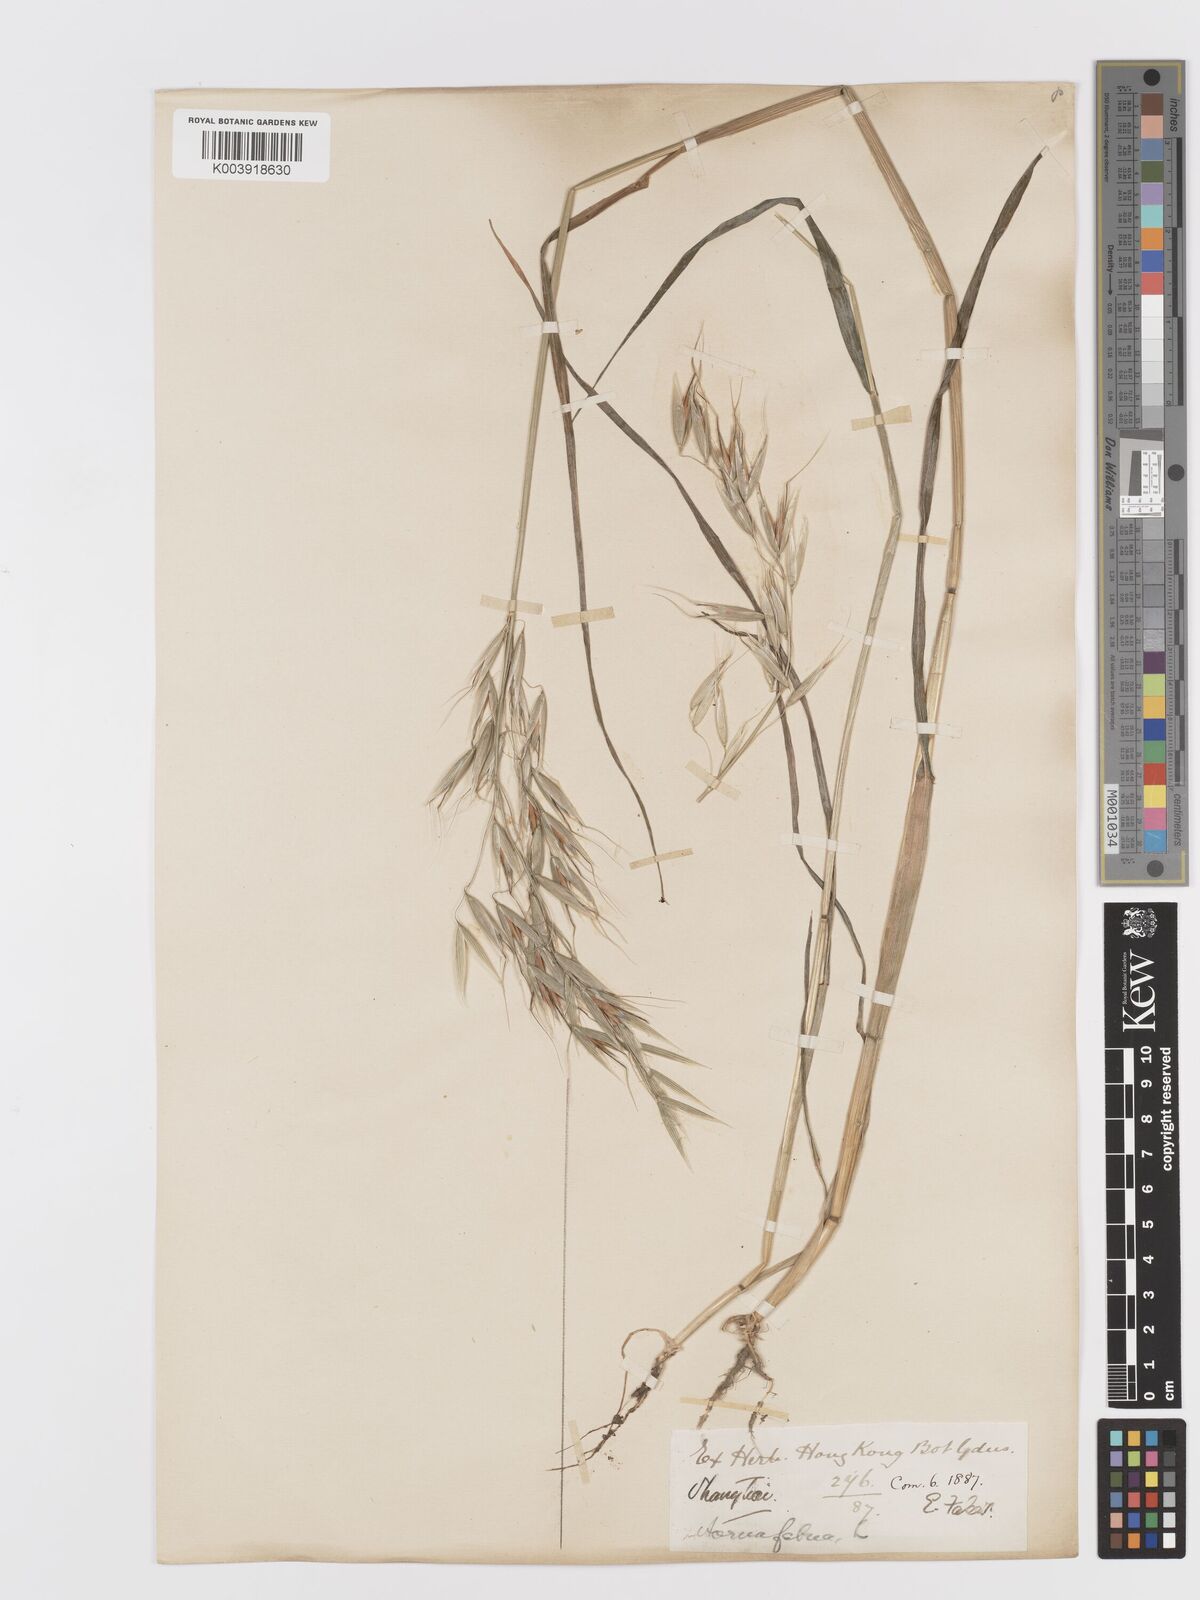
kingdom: Plantae
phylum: Tracheophyta
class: Liliopsida
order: Poales
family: Poaceae
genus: Avena
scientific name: Avena fatua
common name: Wild oat
